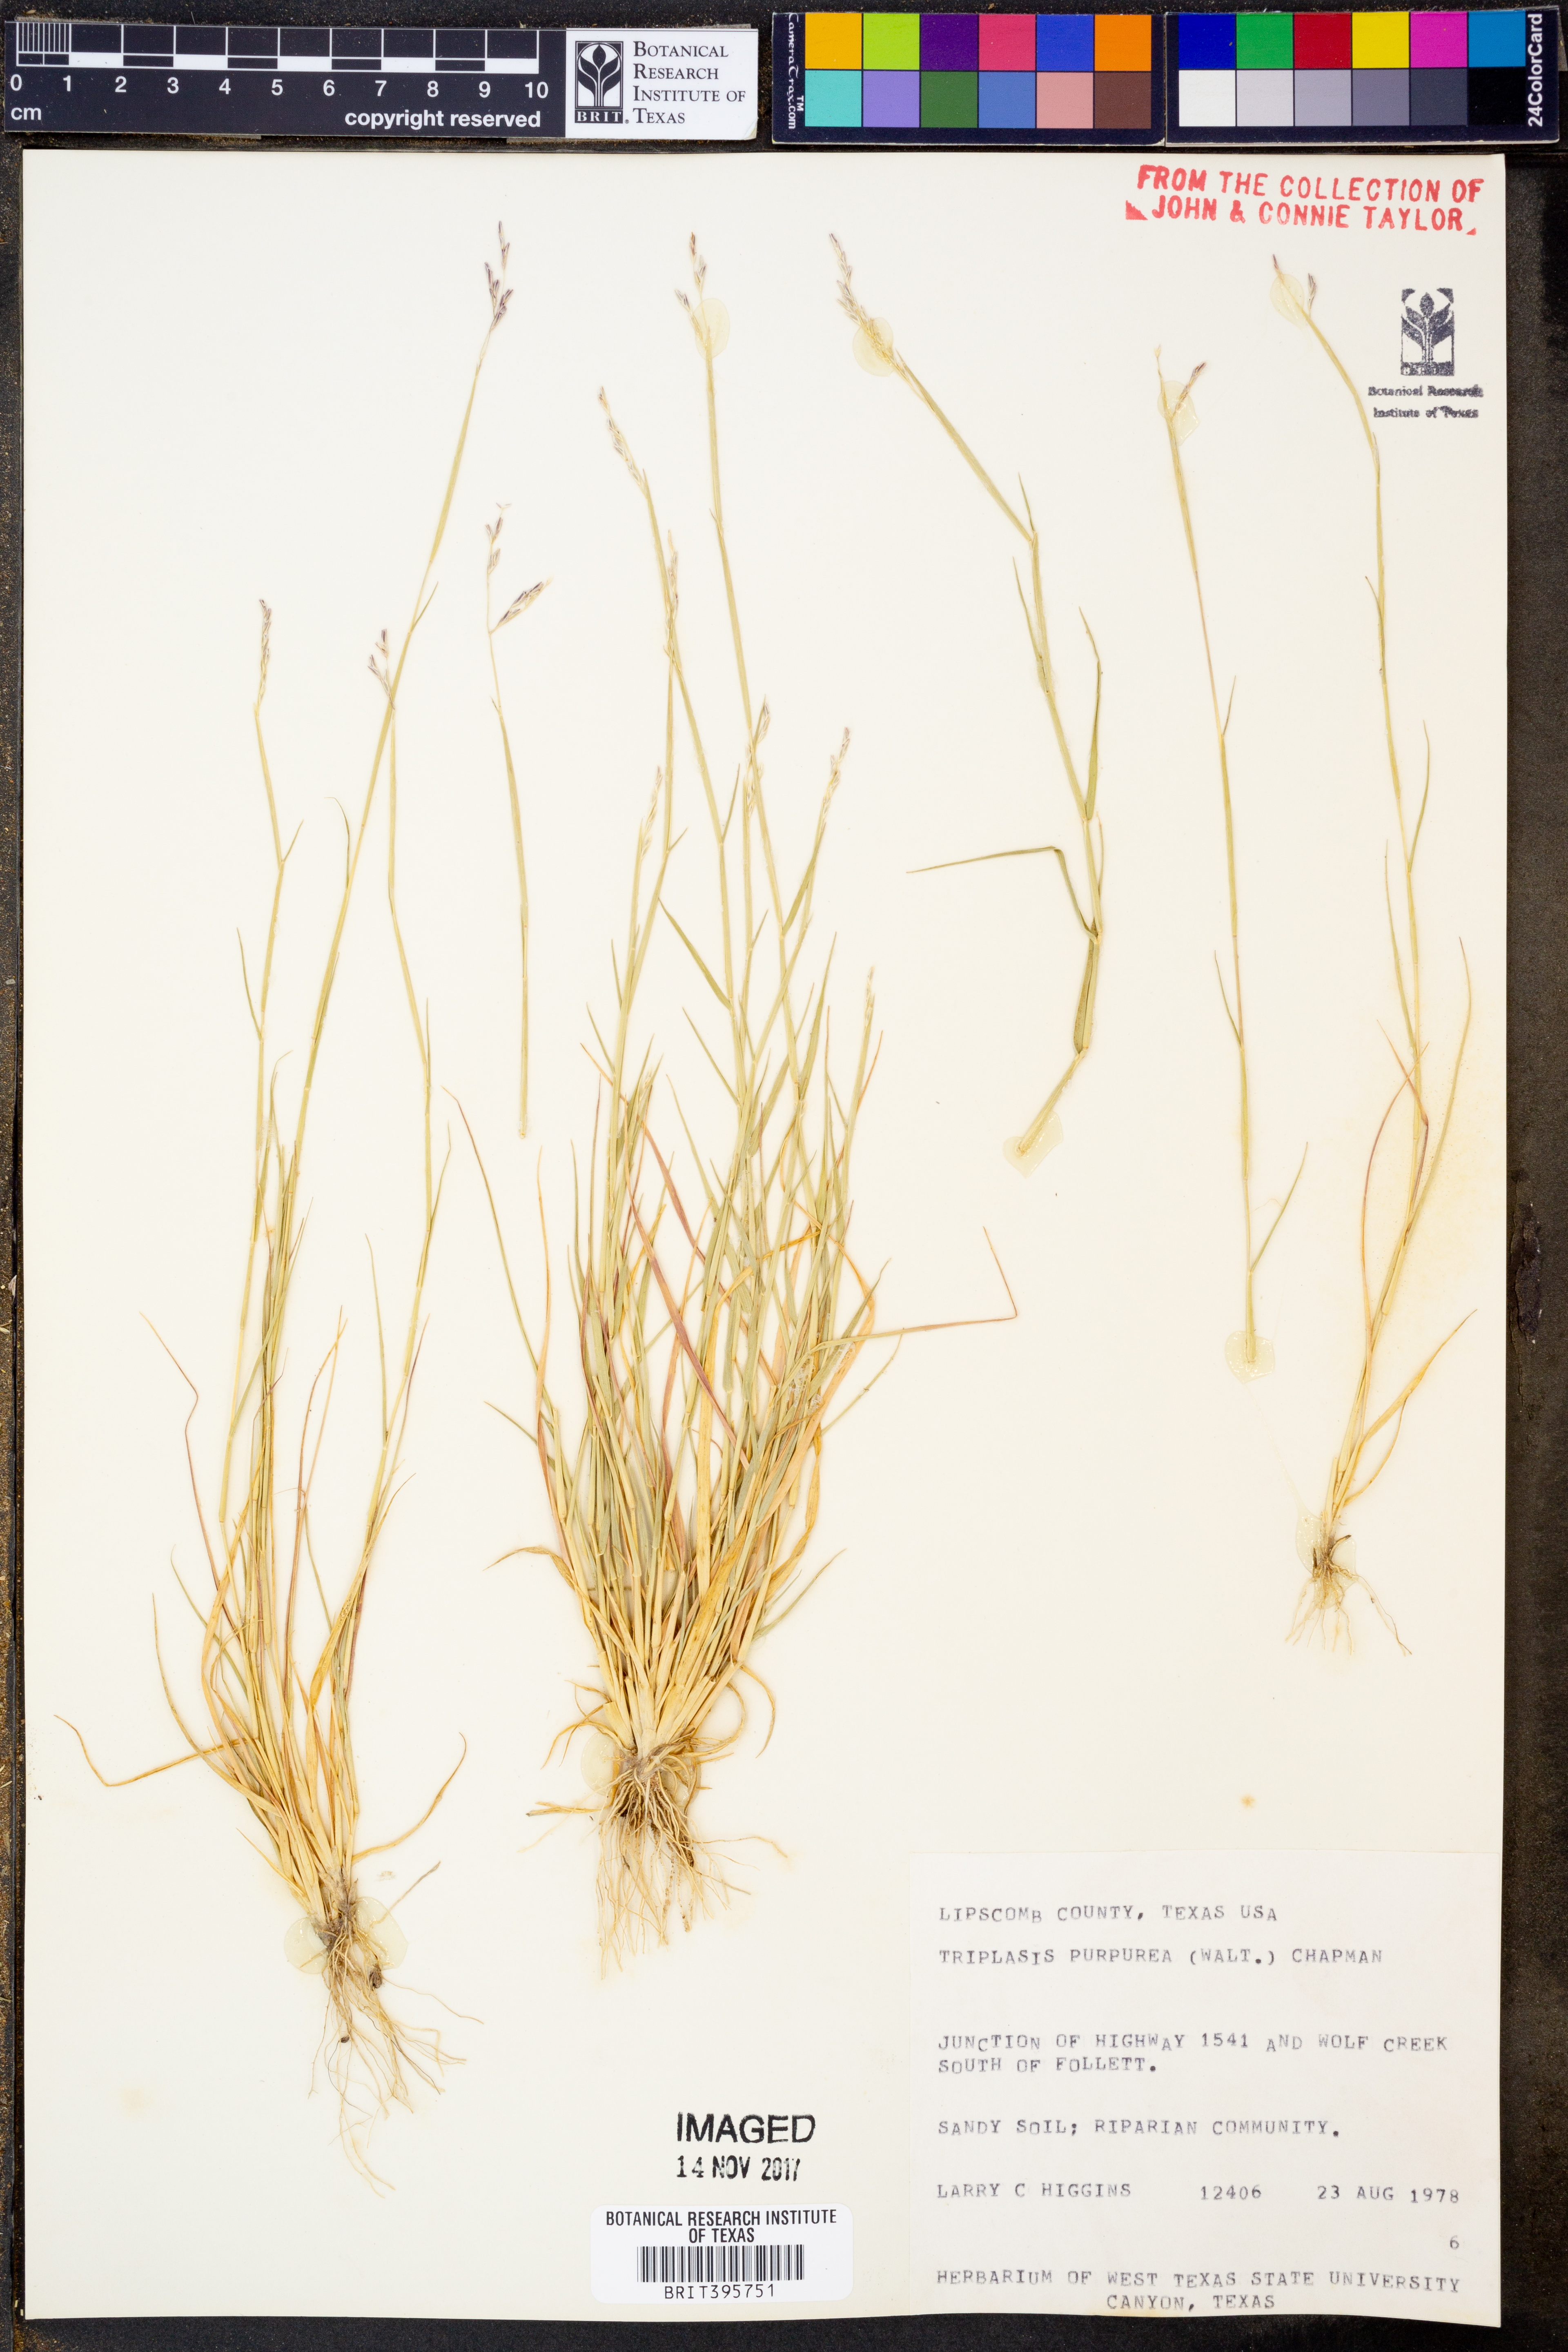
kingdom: Plantae
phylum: Tracheophyta
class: Liliopsida
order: Poales
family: Poaceae
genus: Triplasis
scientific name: Triplasis purpurea
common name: Purple sand grass
